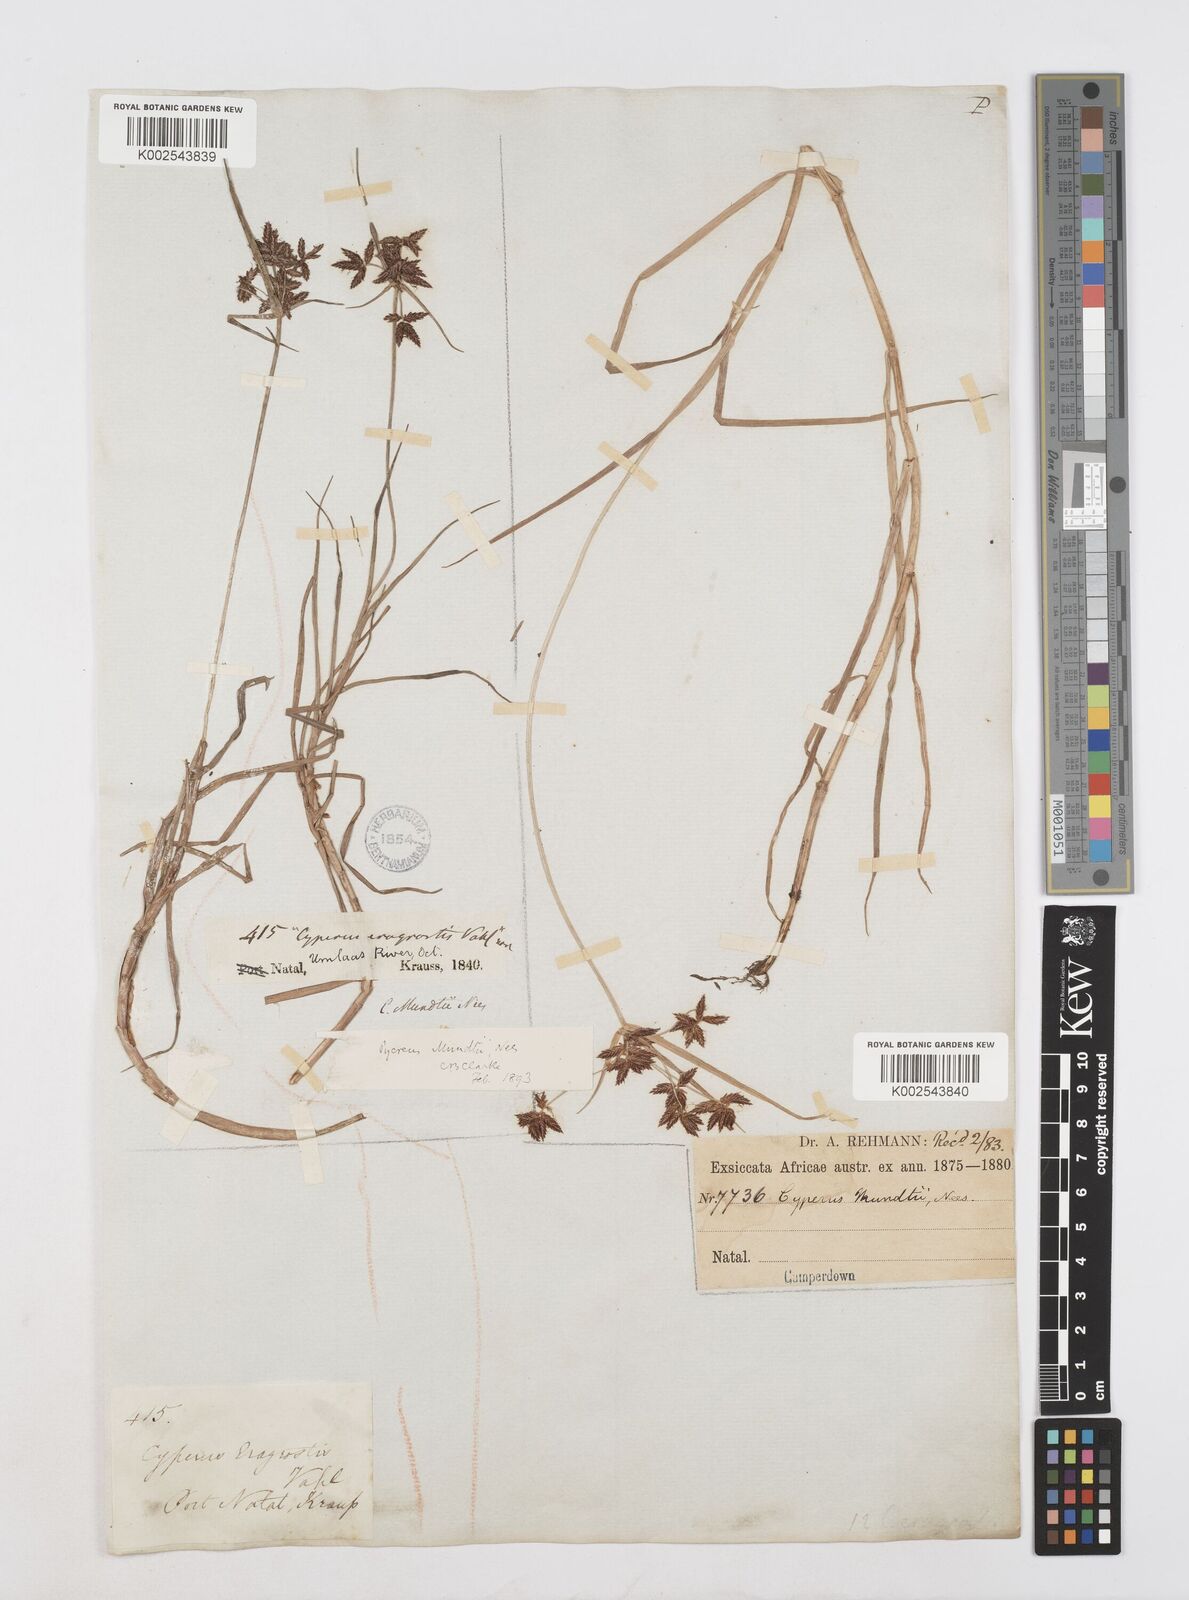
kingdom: Plantae
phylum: Tracheophyta
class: Liliopsida
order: Poales
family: Cyperaceae
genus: Cyperus
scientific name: Cyperus mundii
